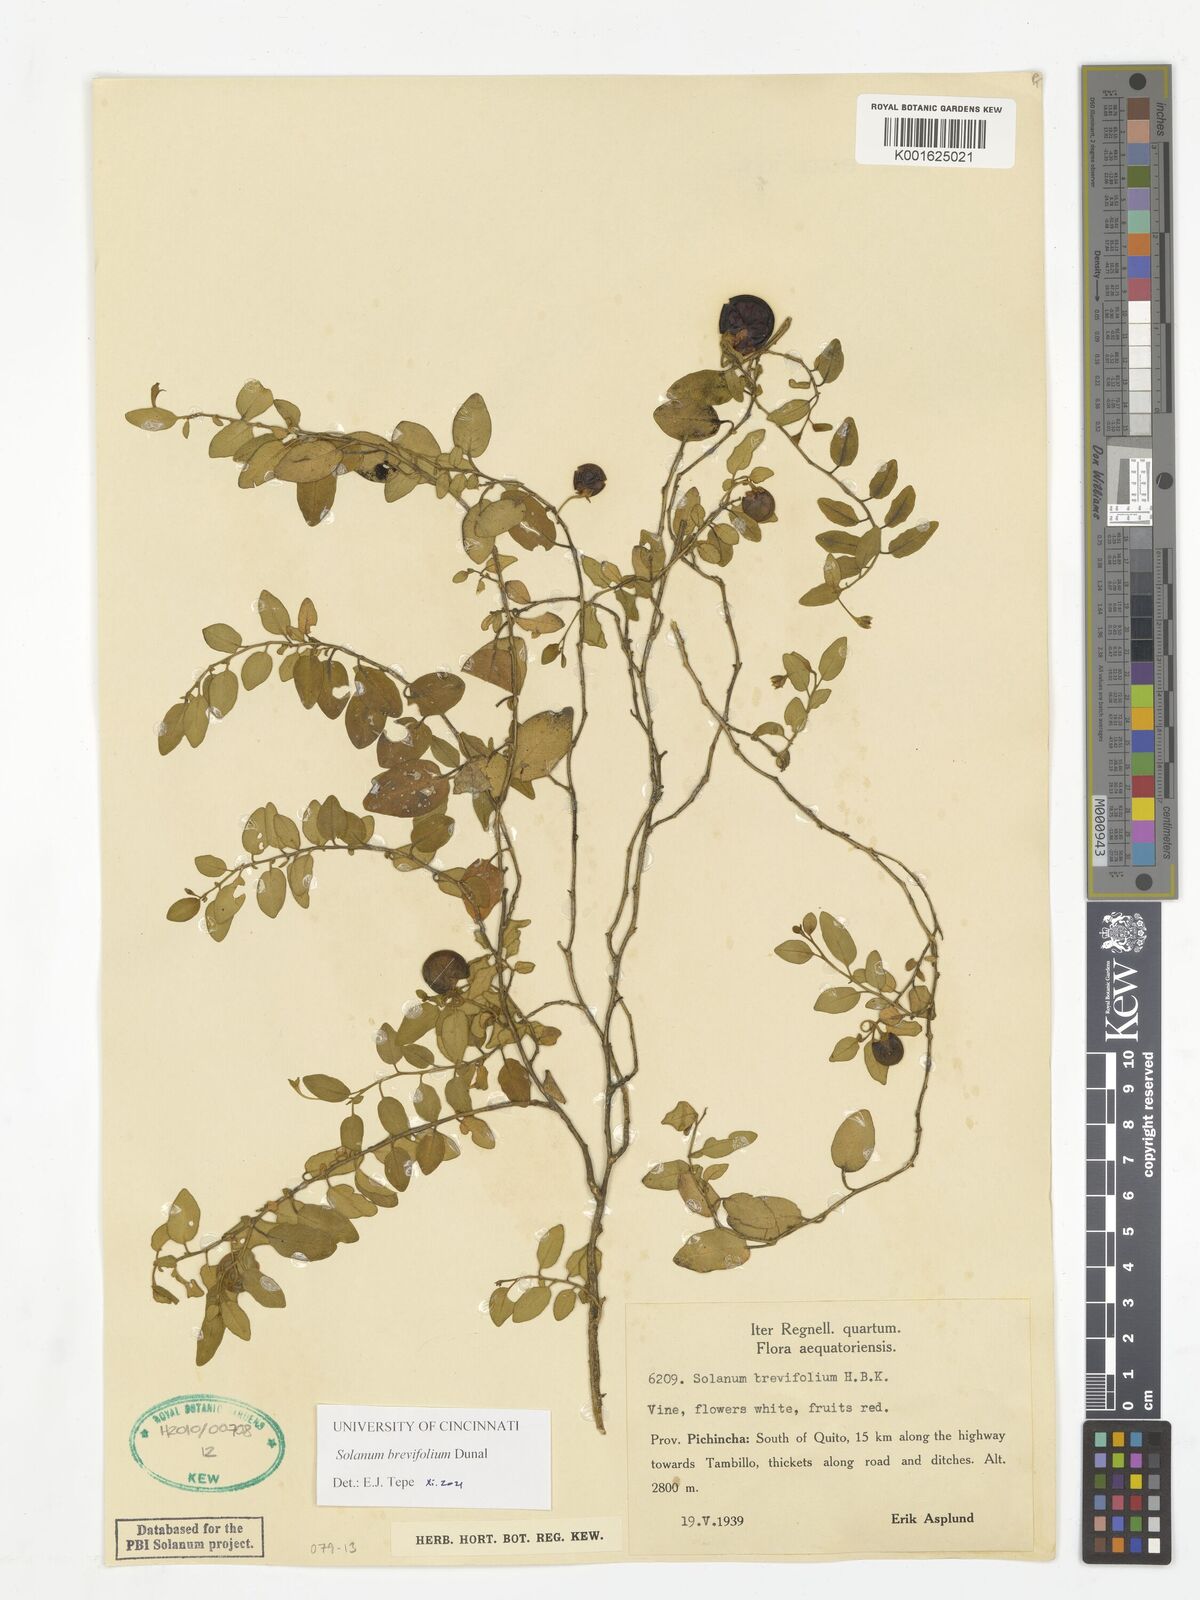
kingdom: Plantae
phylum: Tracheophyta
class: Magnoliopsida
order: Solanales
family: Solanaceae
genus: Solanum
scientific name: Solanum brevifolium
